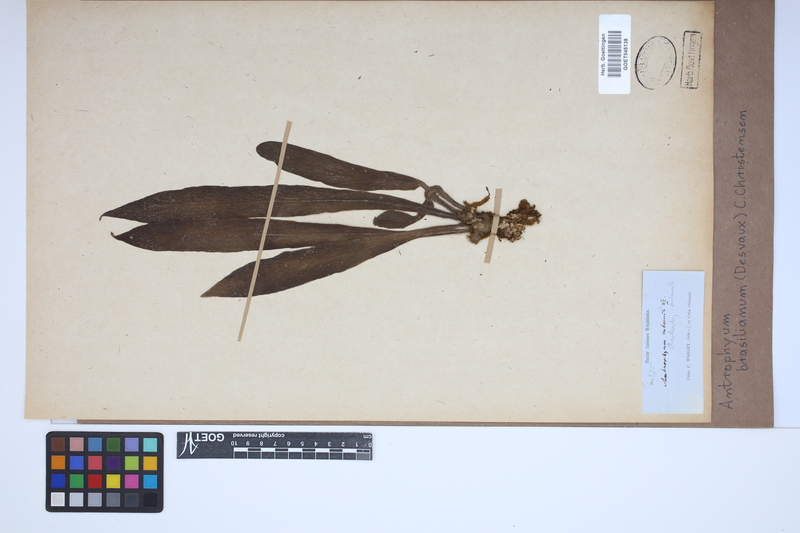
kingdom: Plantae
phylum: Tracheophyta
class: Polypodiopsida
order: Polypodiales
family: Pteridaceae
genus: Polytaenium
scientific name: Polytaenium cajenense
